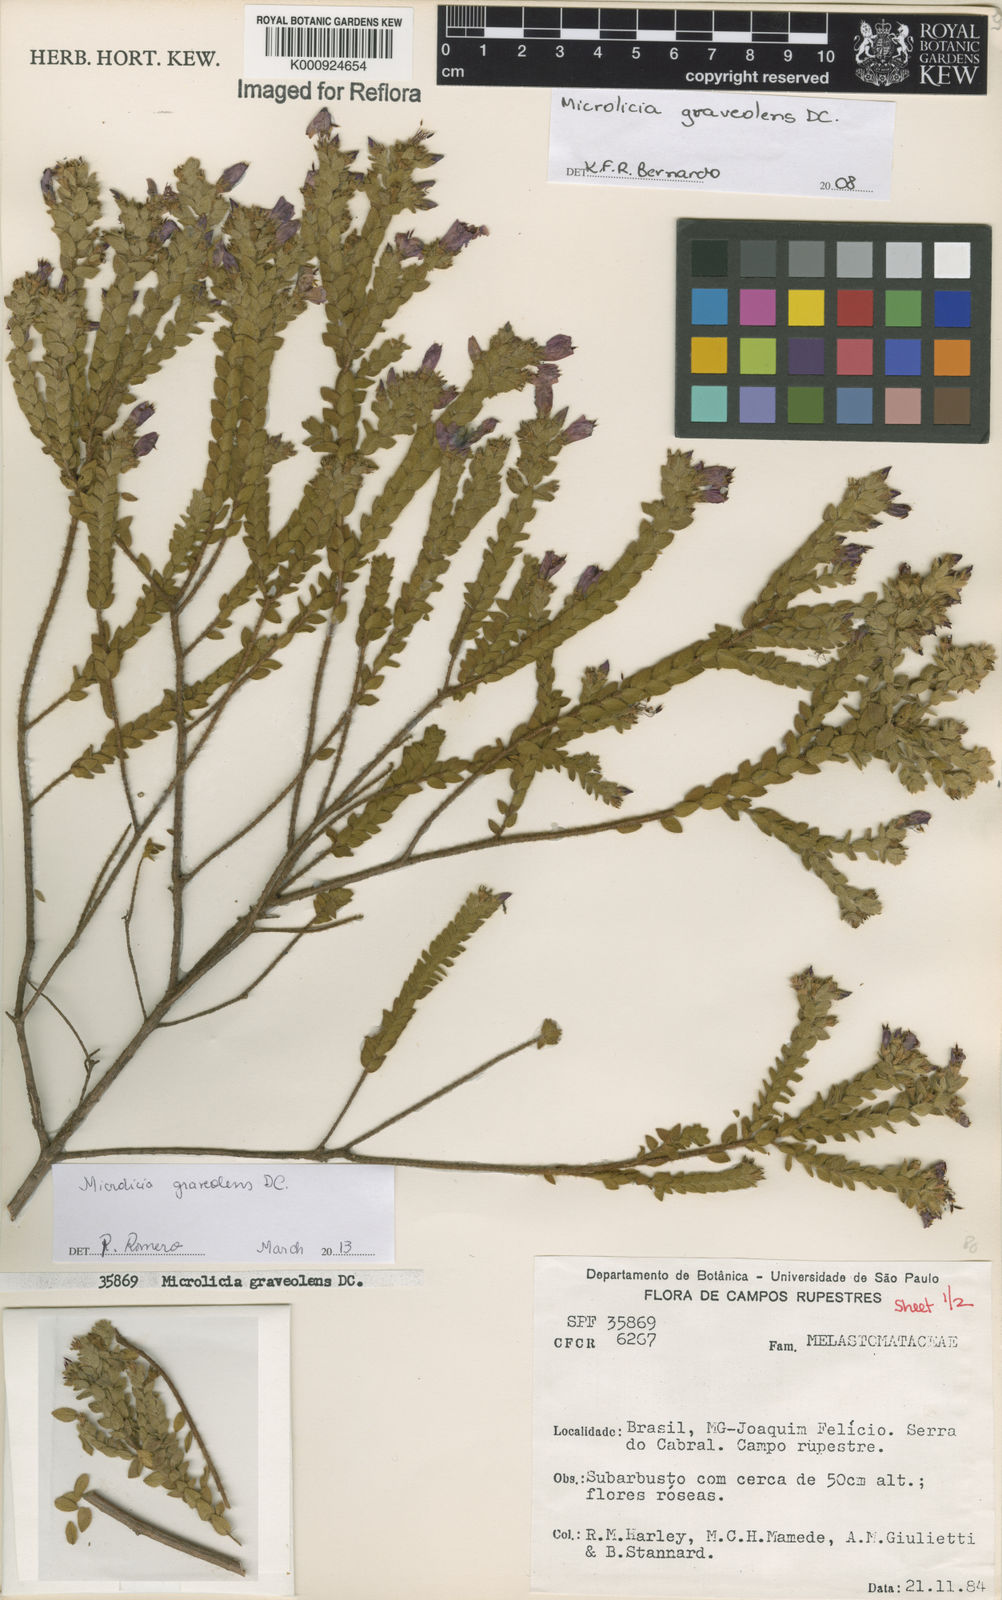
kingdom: Plantae
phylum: Tracheophyta
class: Magnoliopsida
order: Myrtales
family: Melastomataceae
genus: Microlicia
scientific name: Microlicia graveolens
